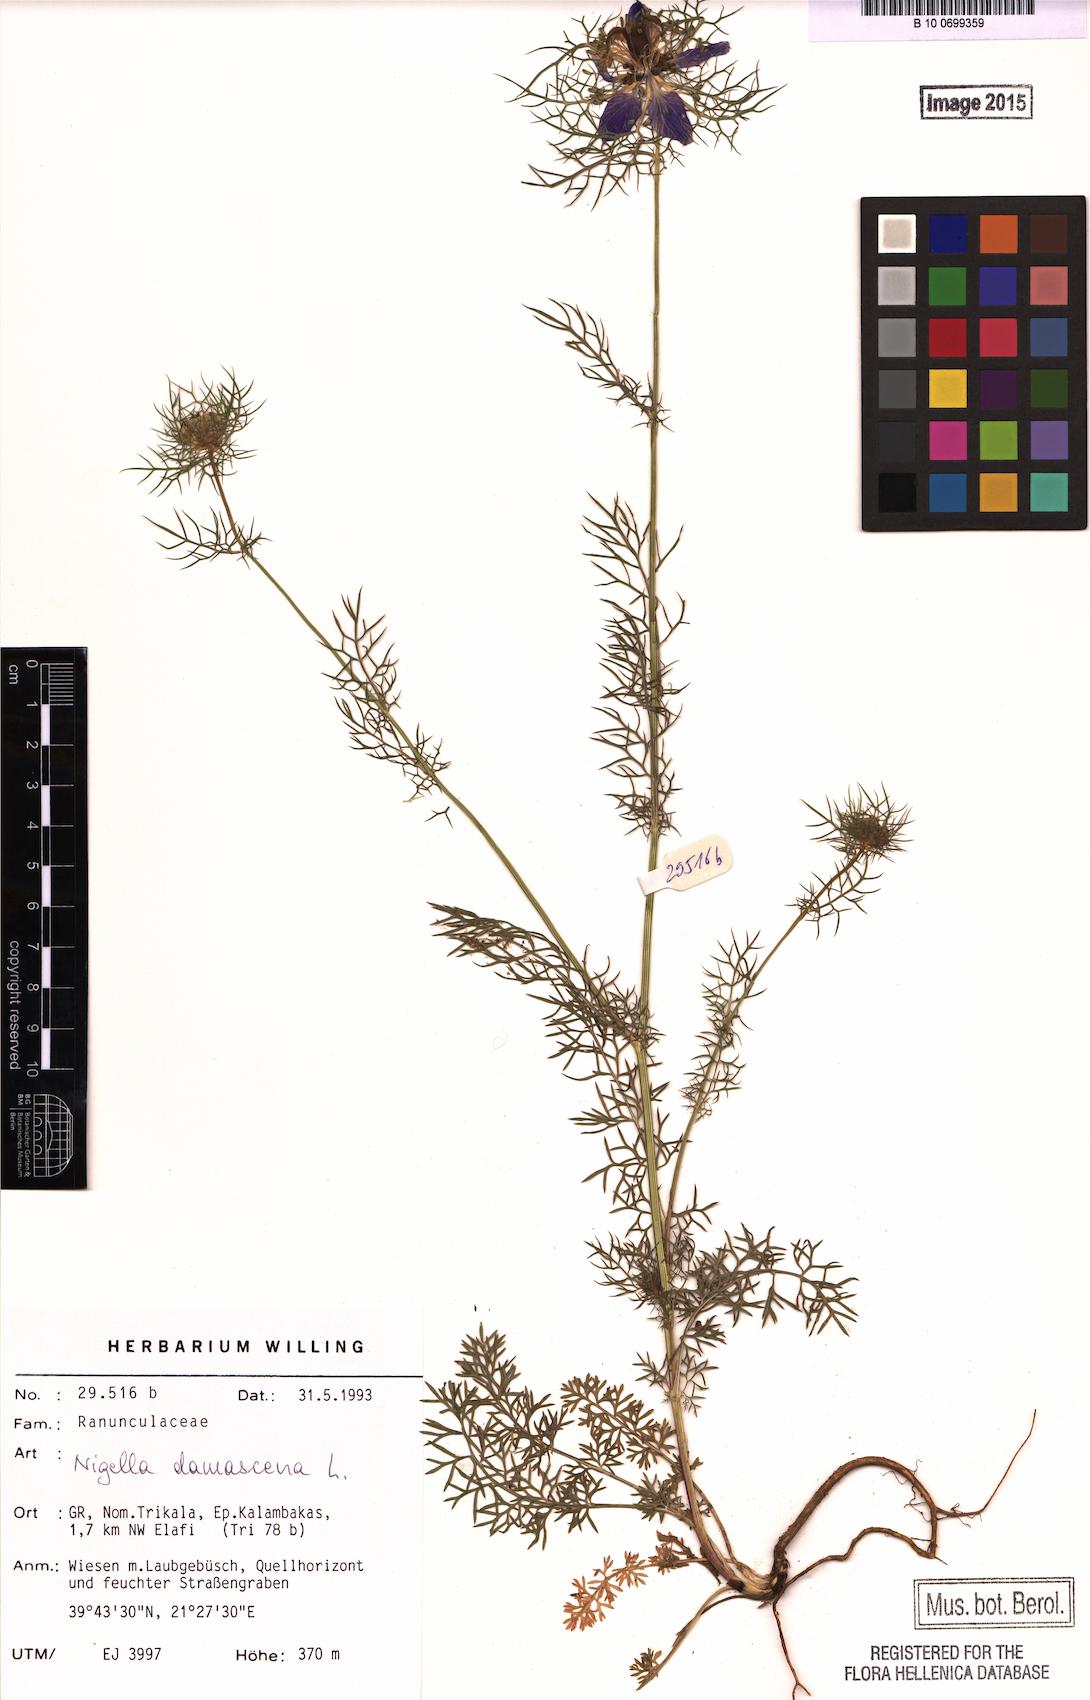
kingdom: Plantae
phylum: Tracheophyta
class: Magnoliopsida
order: Ranunculales
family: Ranunculaceae
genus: Nigella
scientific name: Nigella damascena
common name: Love-in-a-mist
